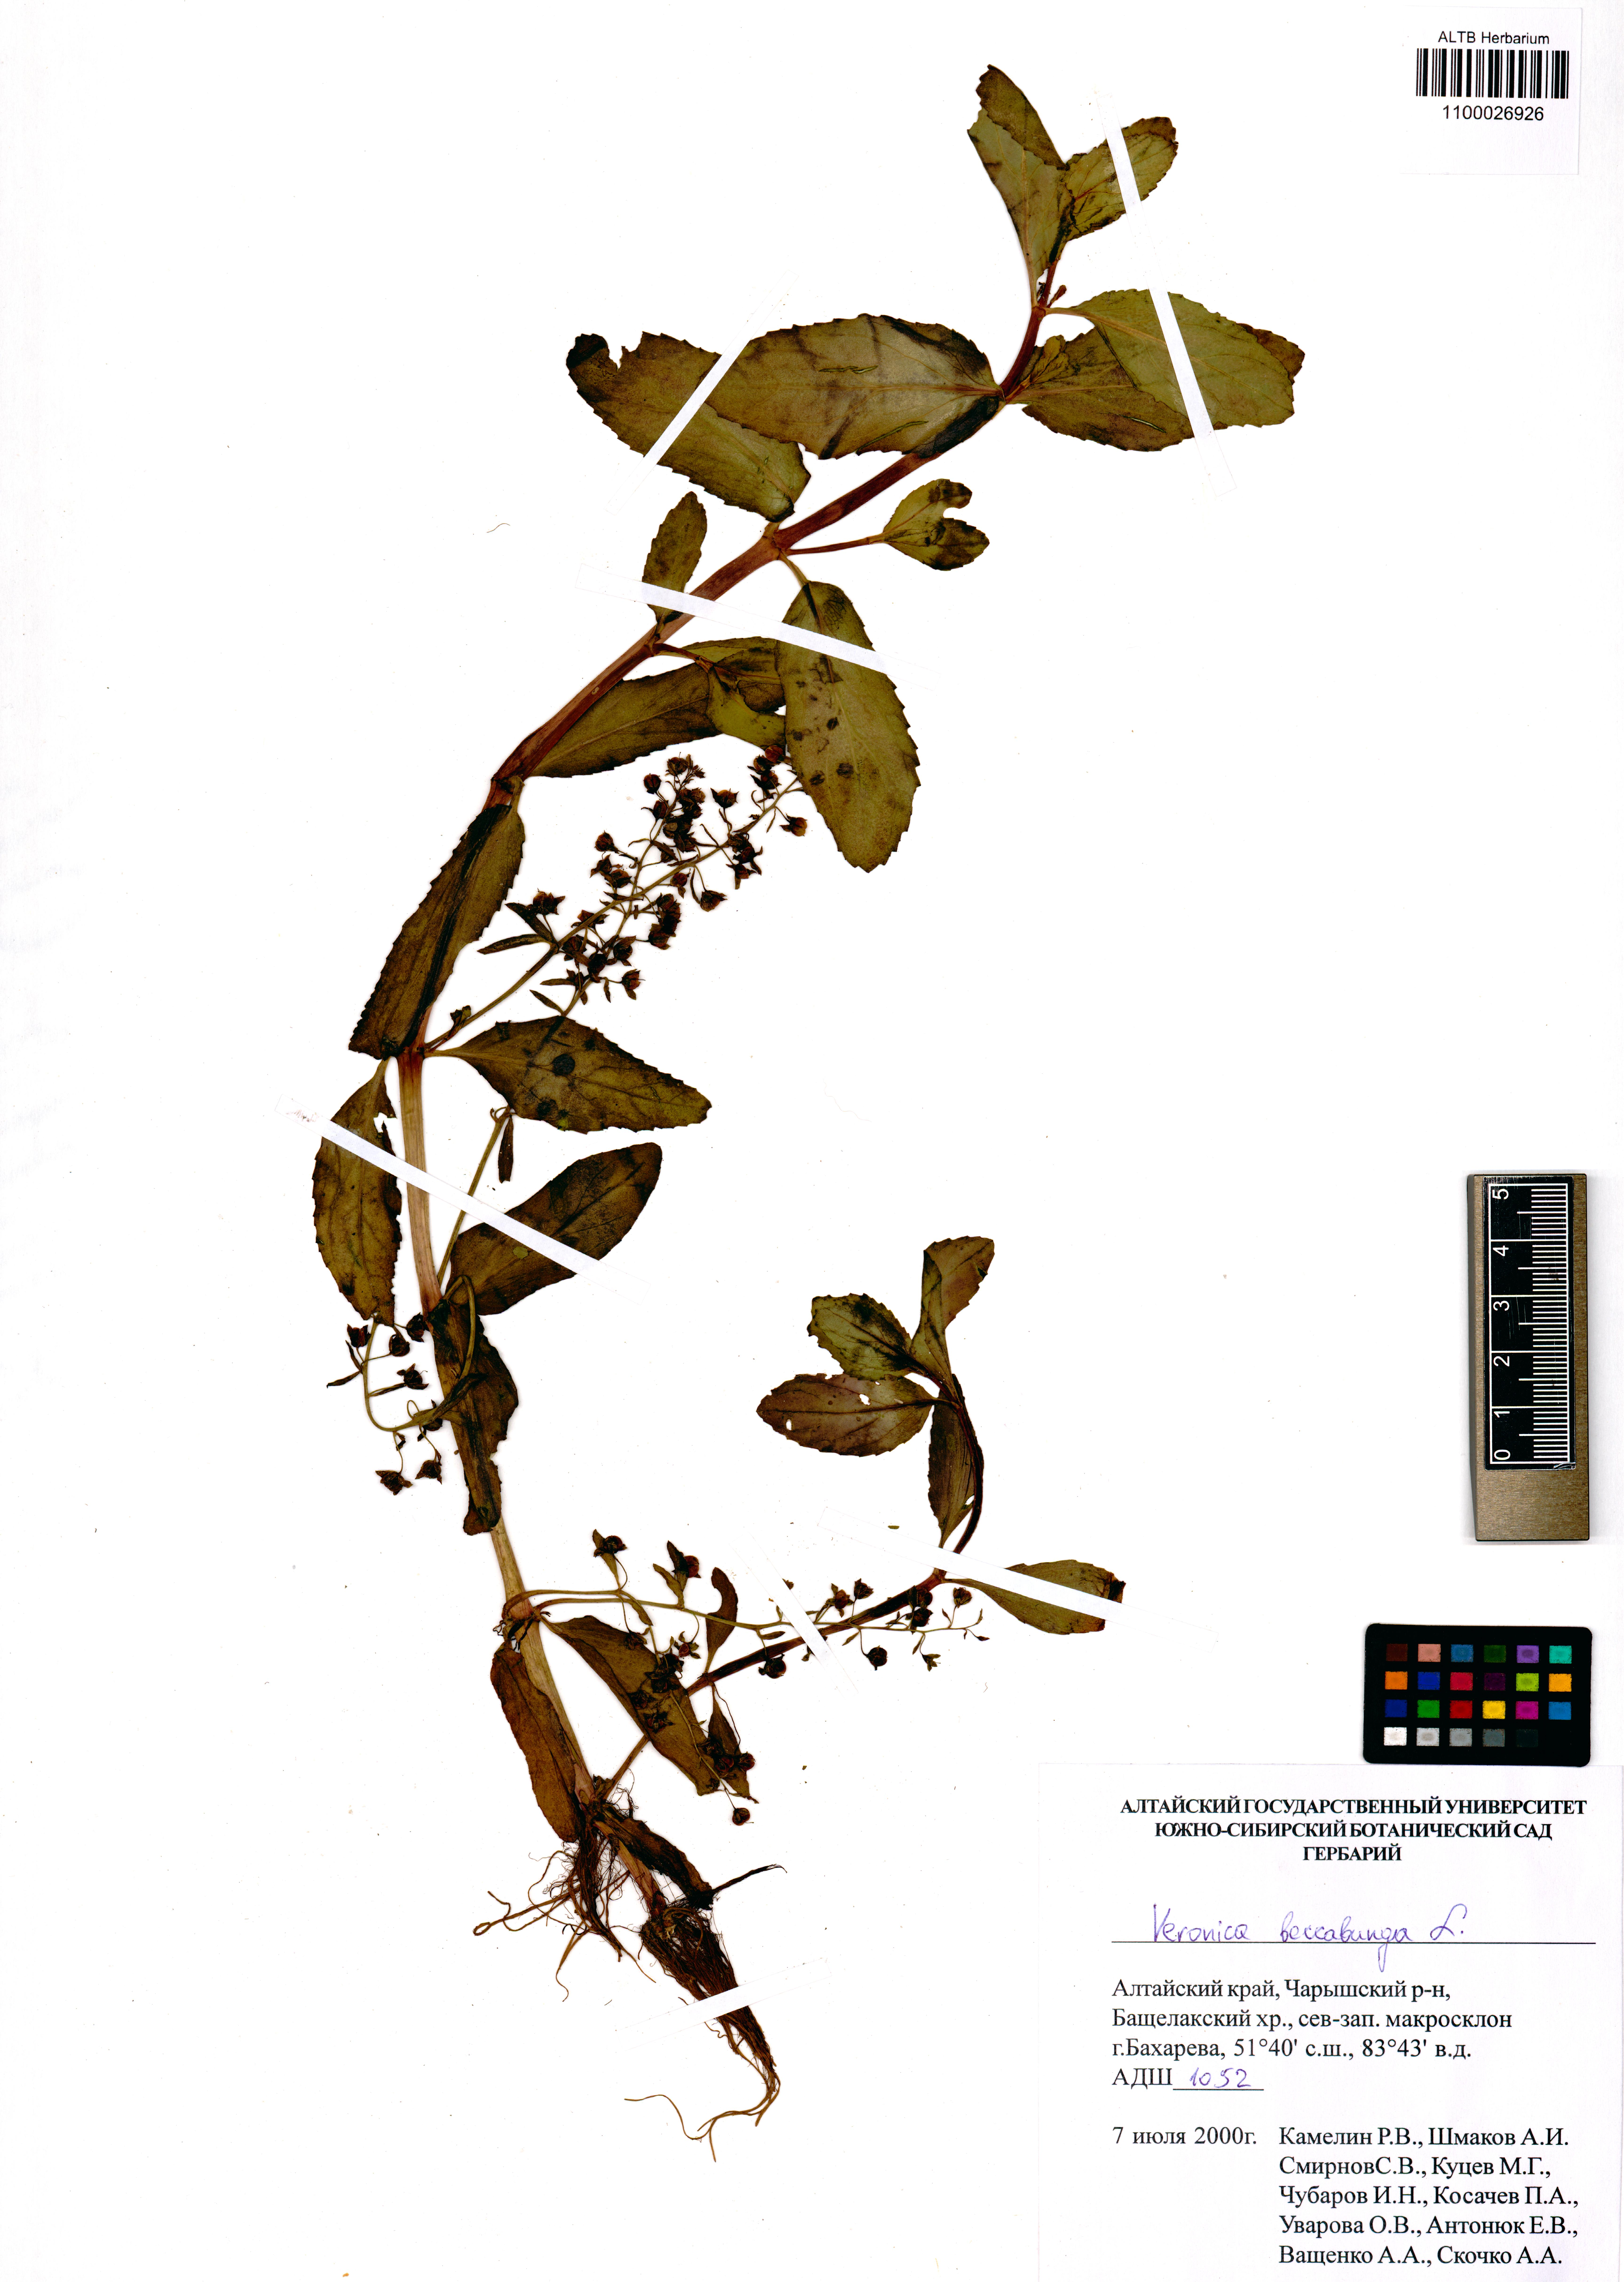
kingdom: Plantae
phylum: Tracheophyta
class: Magnoliopsida
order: Lamiales
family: Plantaginaceae
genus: Veronica
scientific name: Veronica beccabunga
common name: Brooklime
